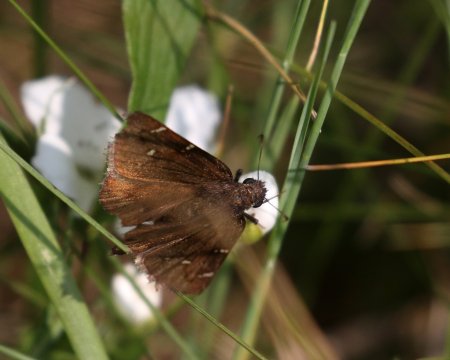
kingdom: Animalia
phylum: Arthropoda
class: Insecta
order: Lepidoptera
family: Hesperiidae
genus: Autochton
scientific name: Autochton
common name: Northern Cloudywing
